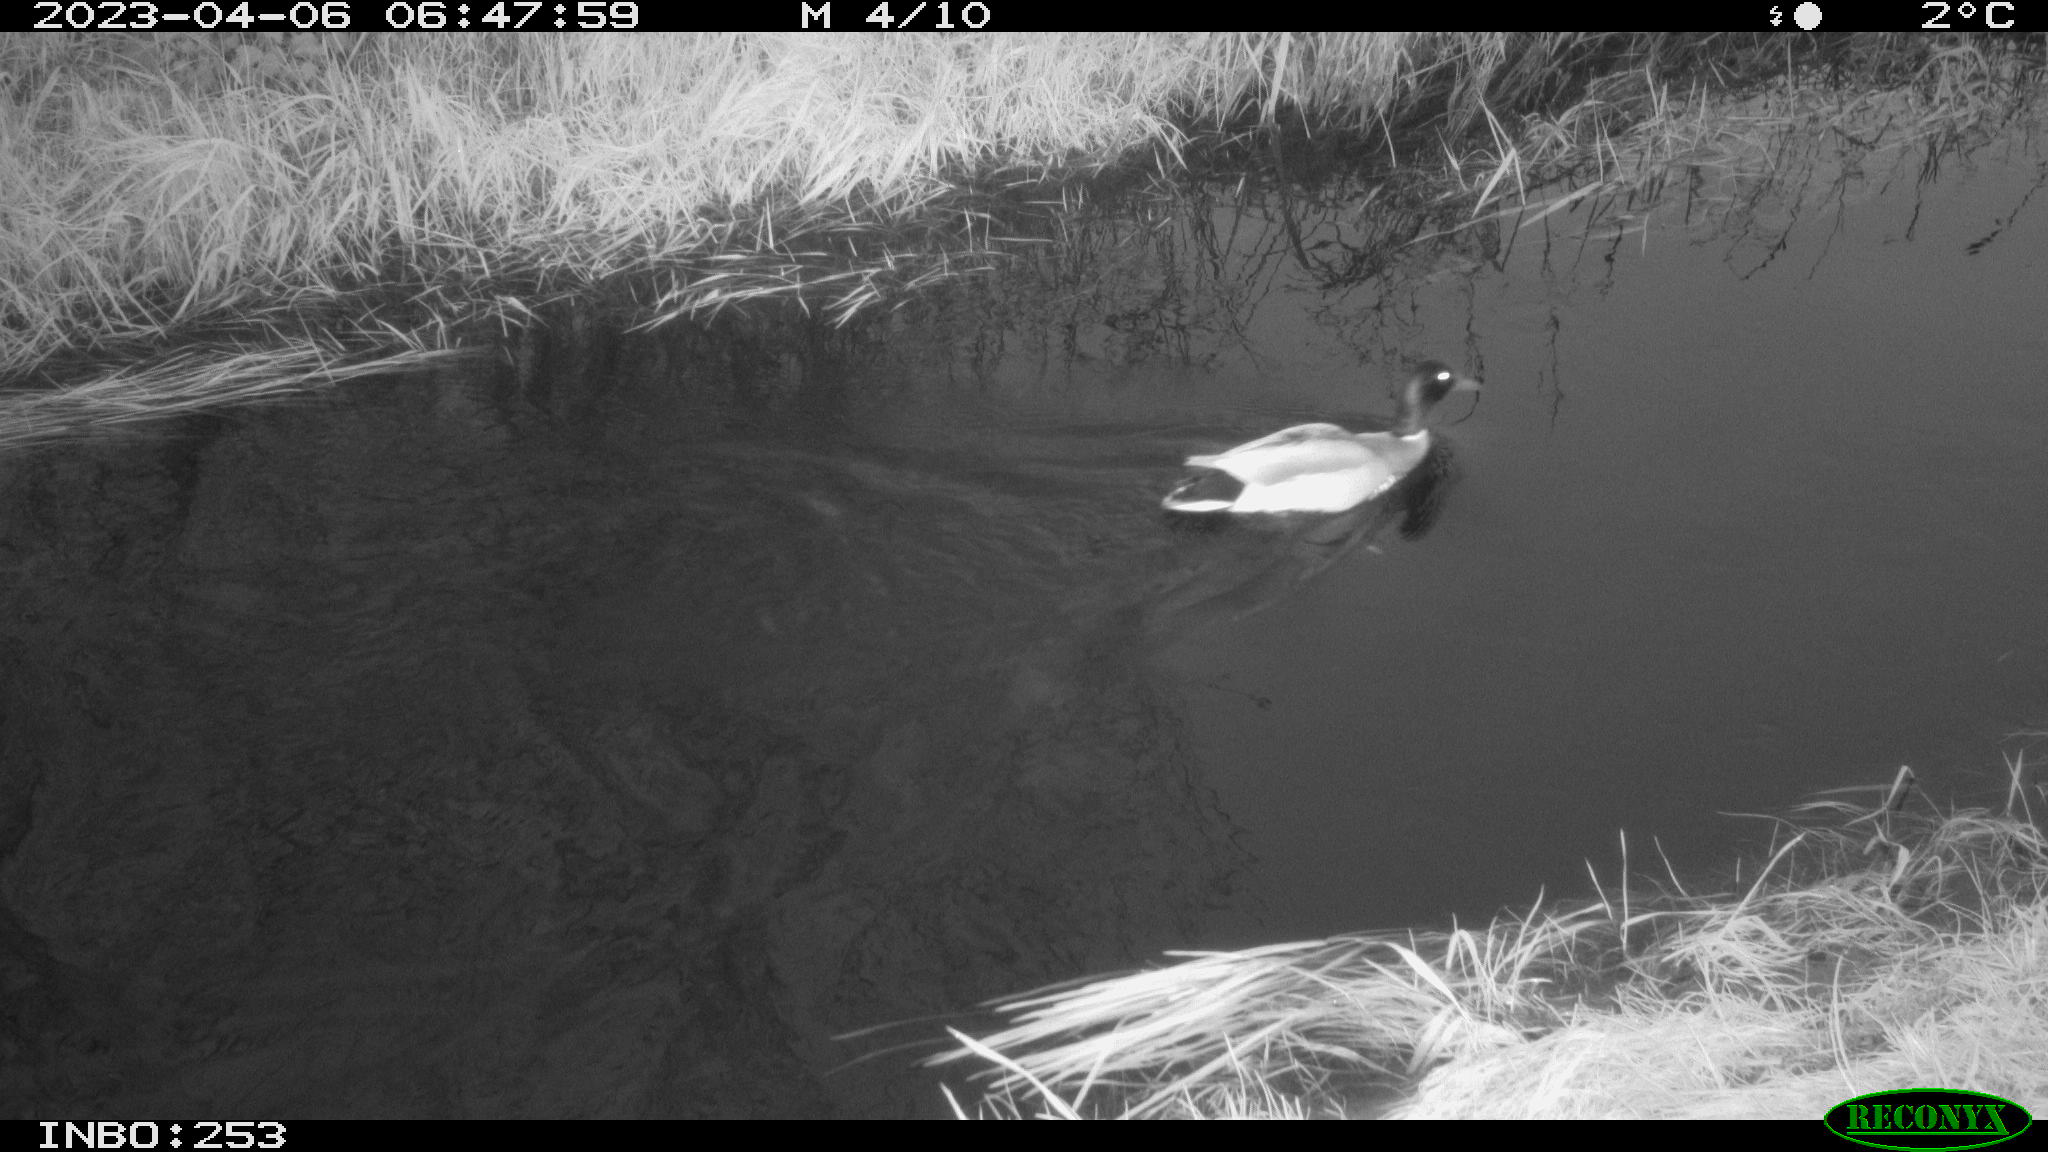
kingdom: Animalia
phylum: Chordata
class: Aves
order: Anseriformes
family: Anatidae
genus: Anas
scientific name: Anas
